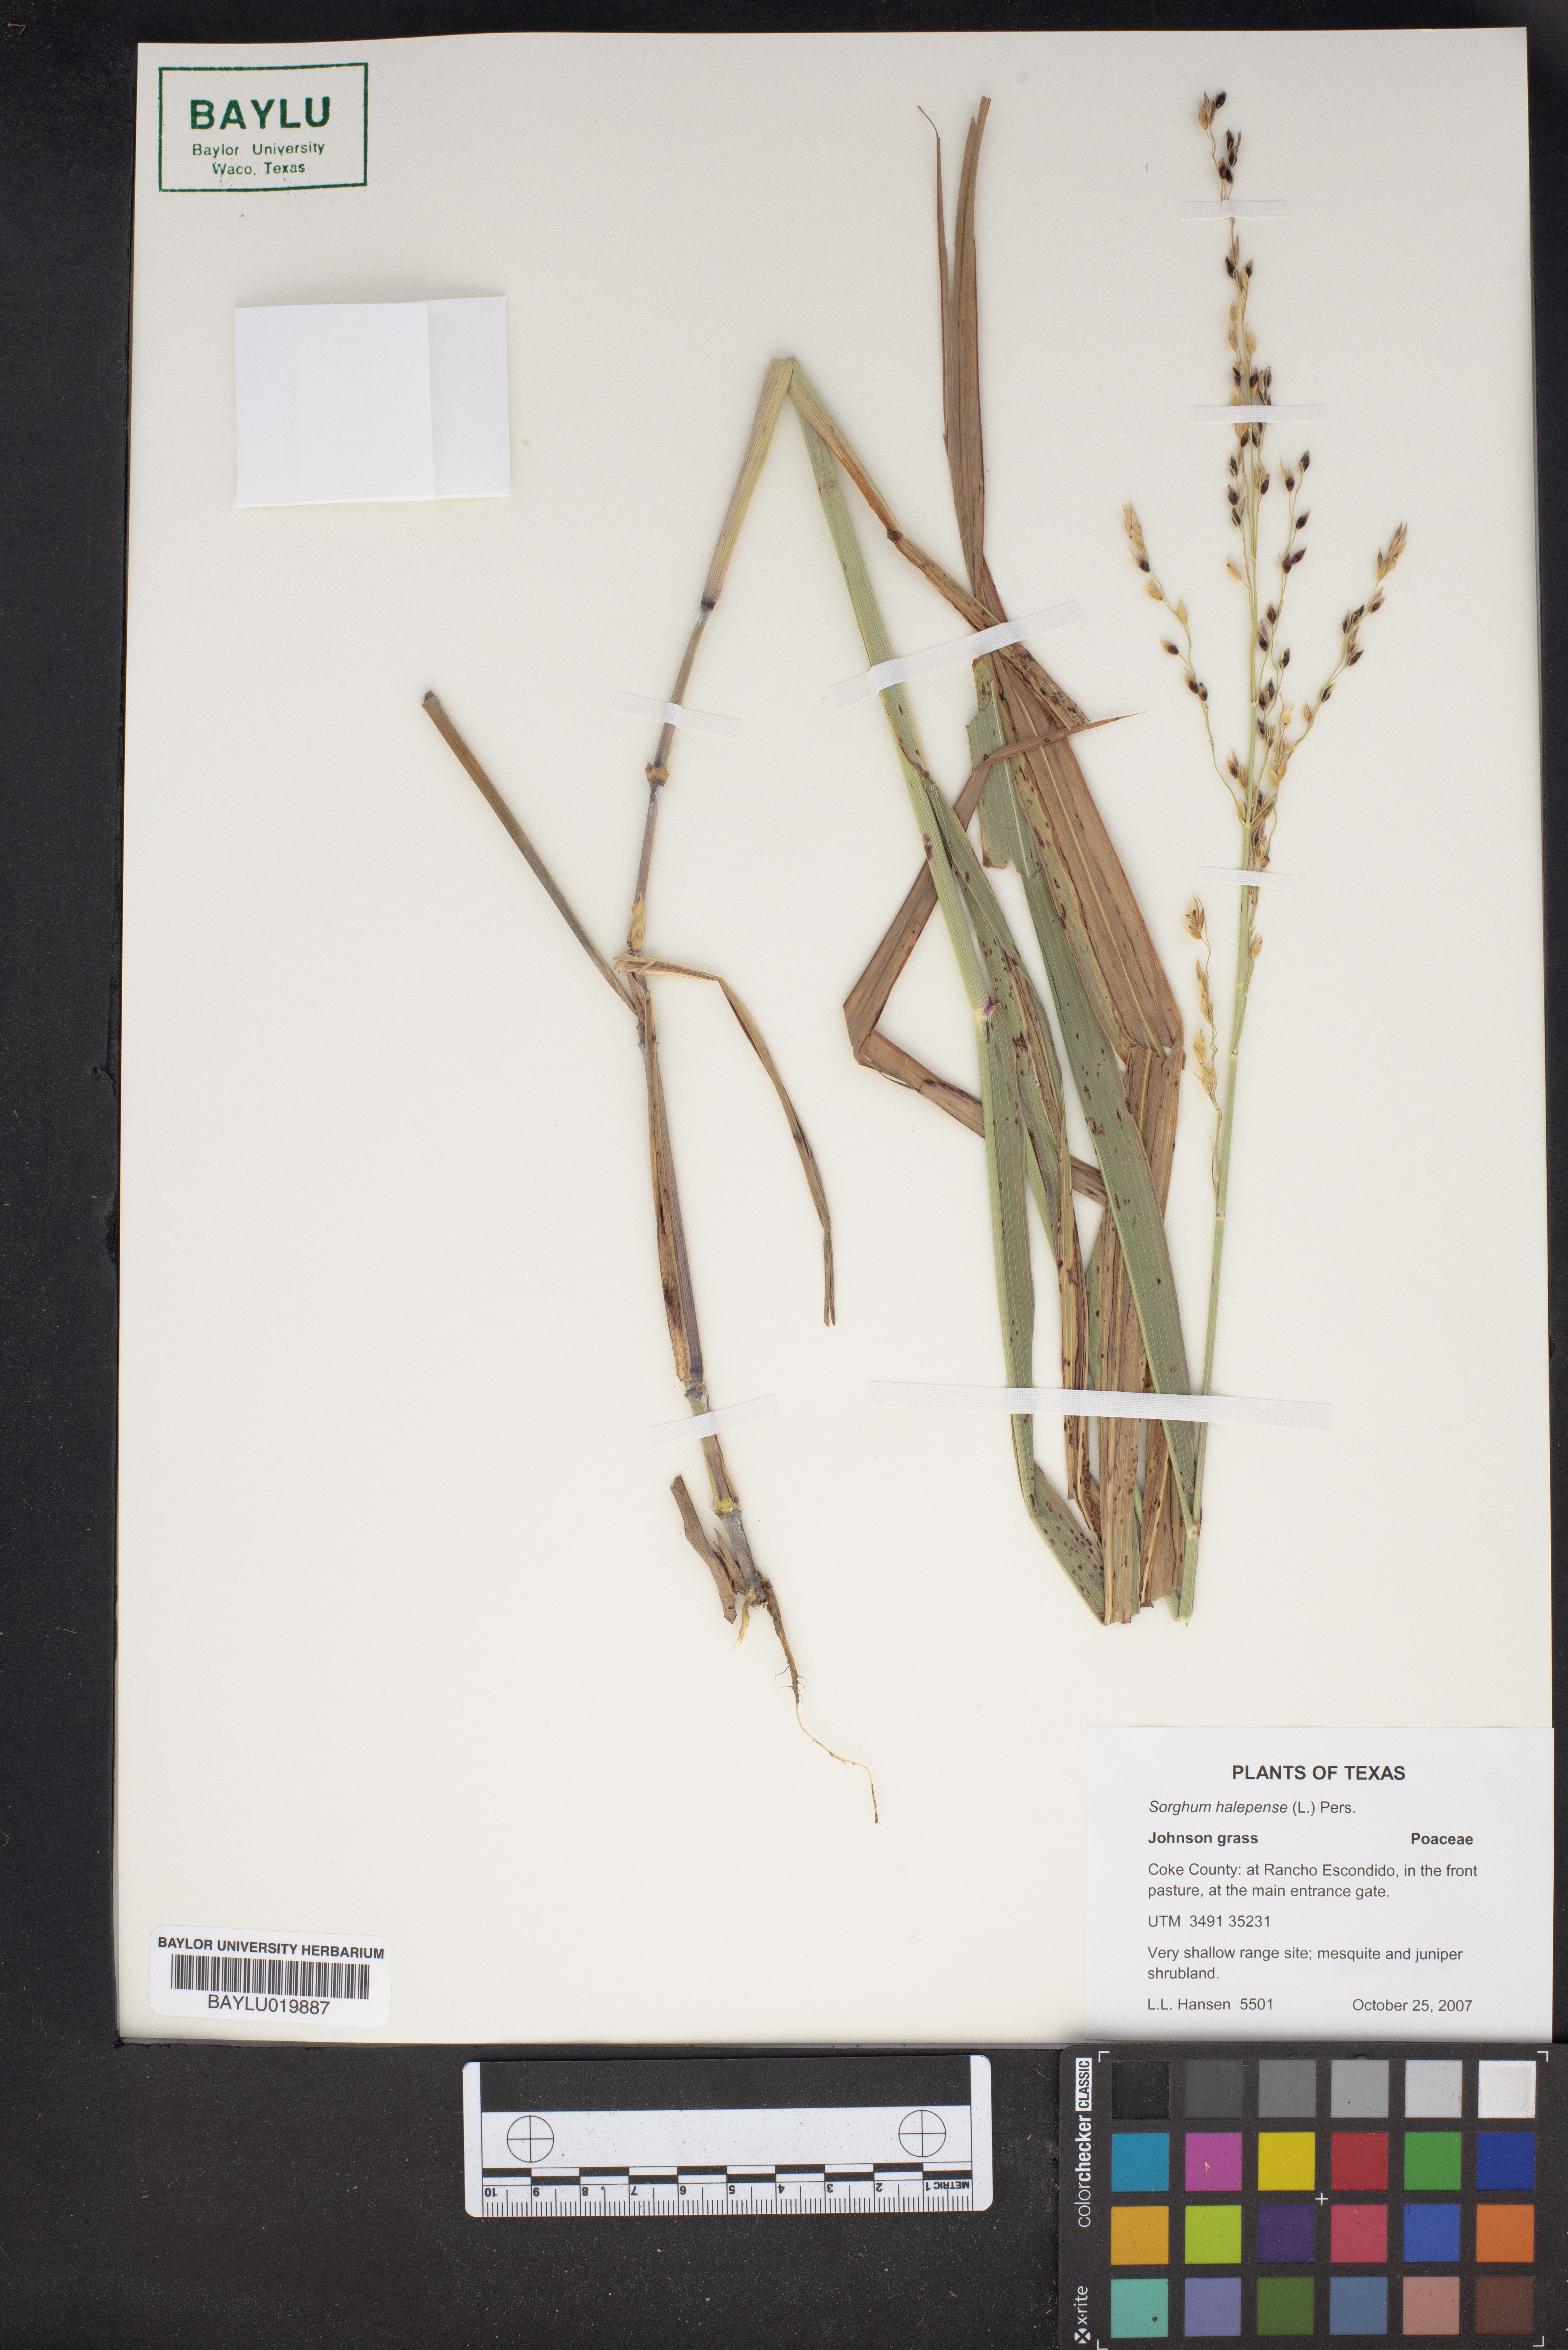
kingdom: Plantae
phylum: Tracheophyta
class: Liliopsida
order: Poales
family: Poaceae
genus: Sorghum
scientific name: Sorghum halepense
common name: Johnson-grass
